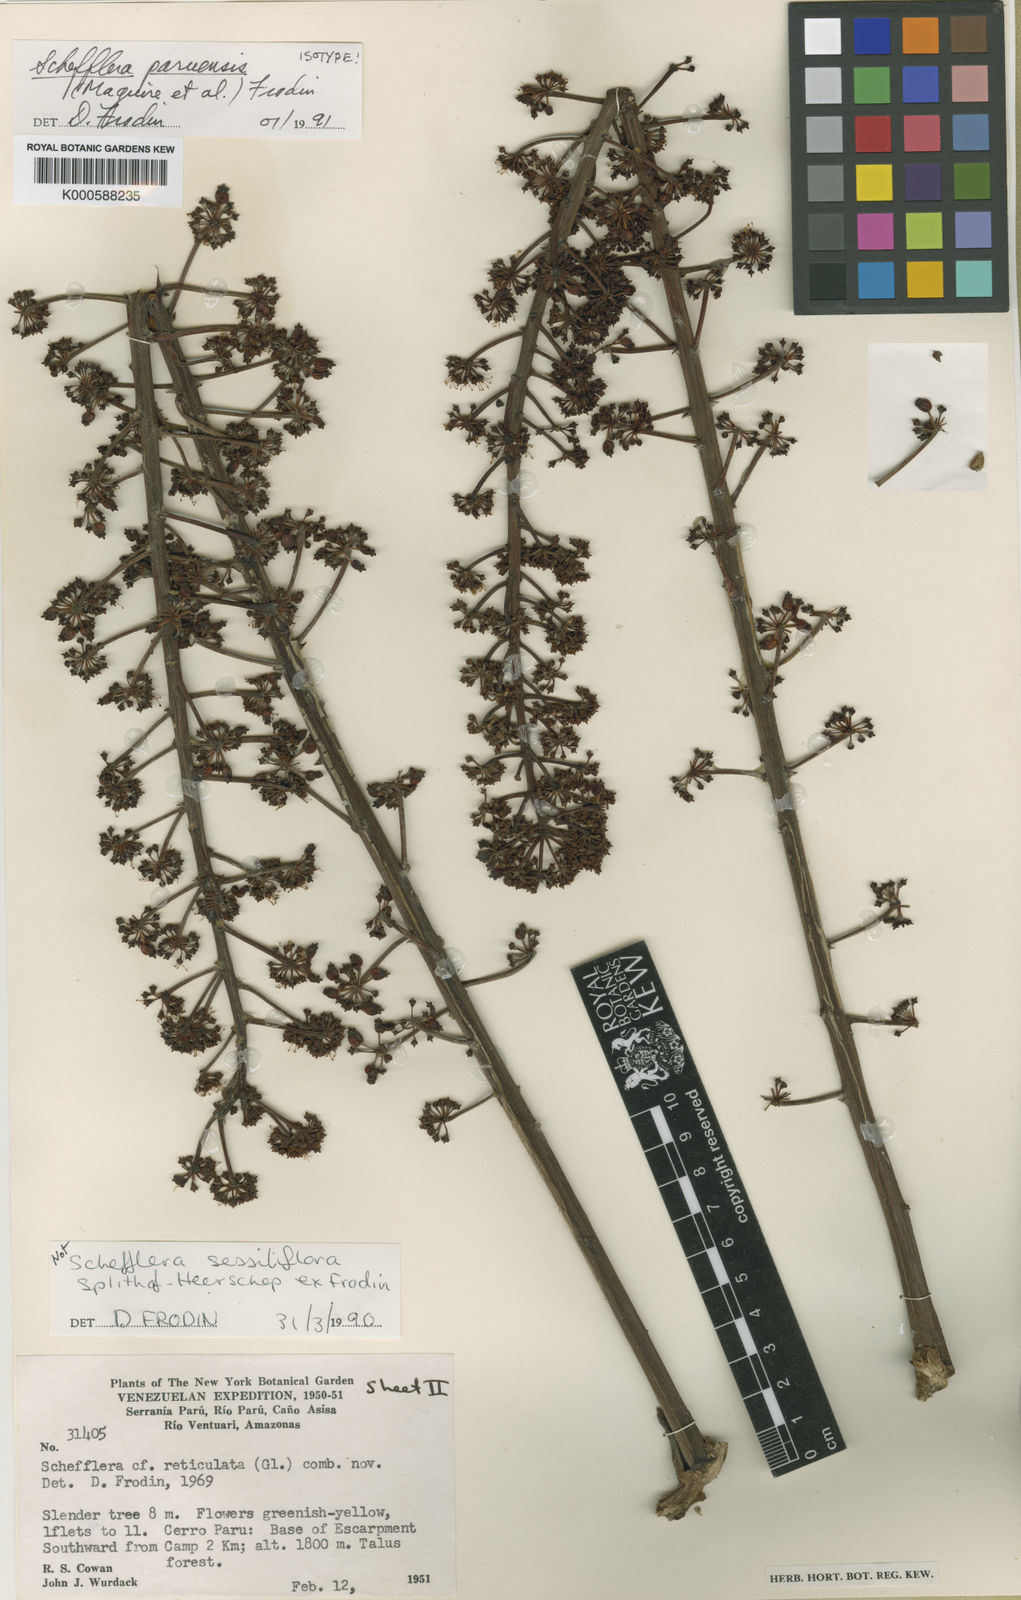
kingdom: Plantae
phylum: Tracheophyta
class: Magnoliopsida
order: Apiales
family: Araliaceae
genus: Sciodaphyllum
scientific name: Sciodaphyllum
